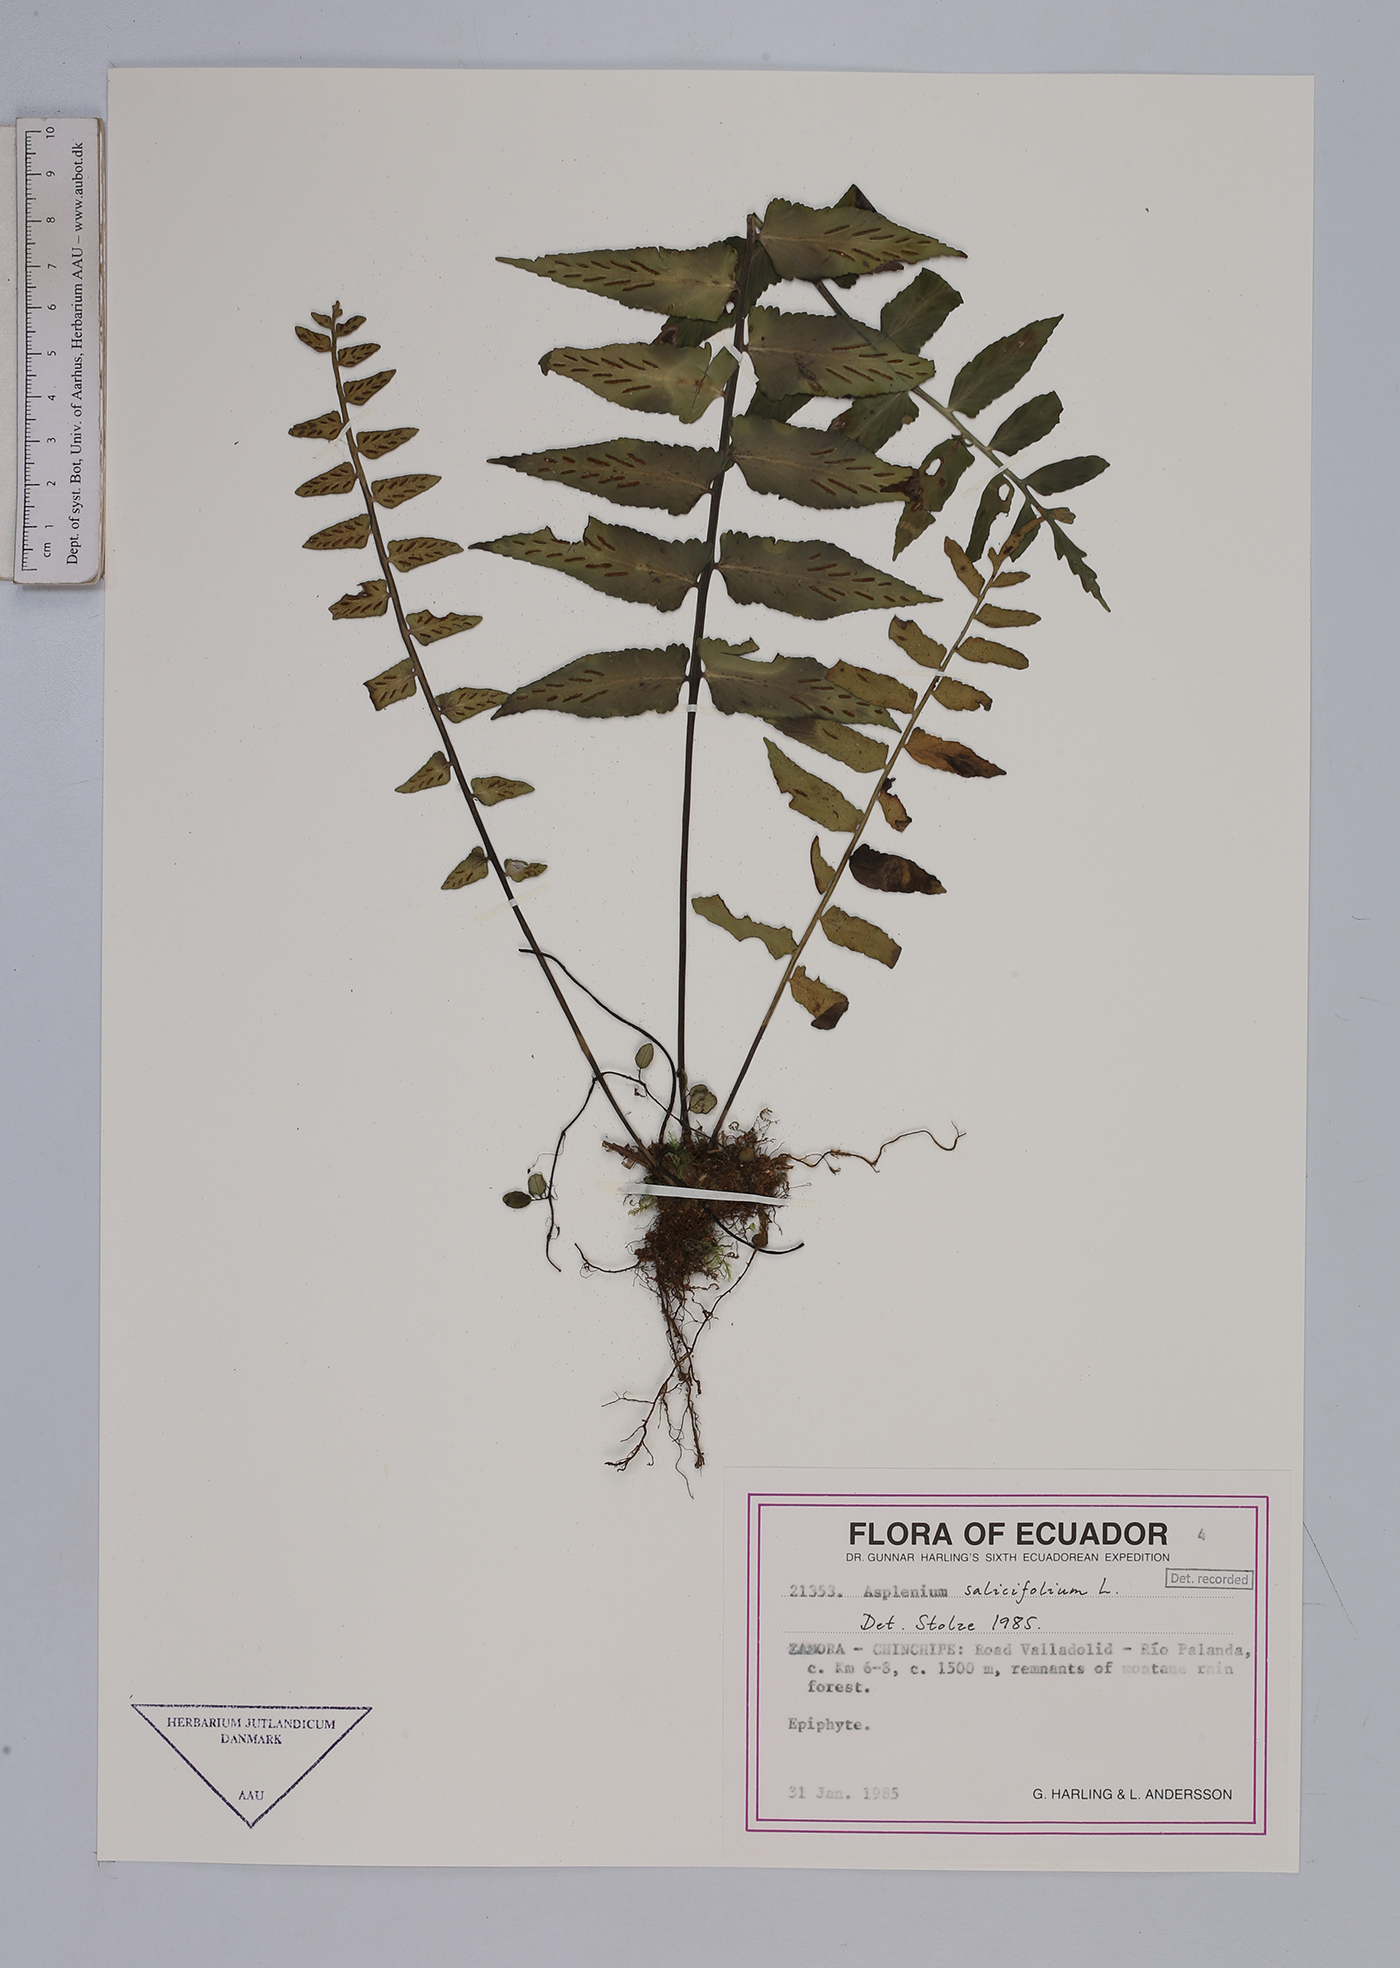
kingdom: Plantae
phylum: Tracheophyta
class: Polypodiopsida
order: Polypodiales
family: Aspleniaceae
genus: Asplenium
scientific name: Asplenium salicifolium
